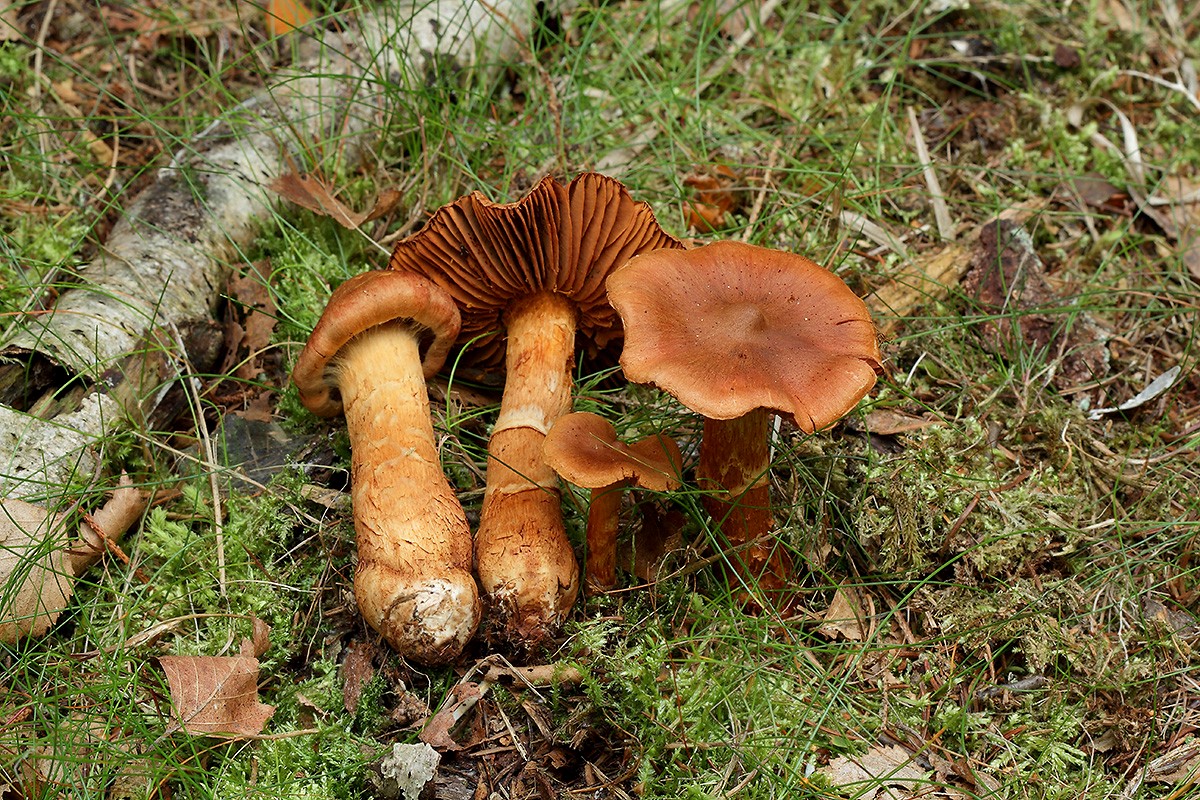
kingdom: Fungi
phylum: Basidiomycota
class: Agaricomycetes
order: Agaricales
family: Cortinariaceae
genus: Cortinarius
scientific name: Cortinarius rubellus
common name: puklet gift-slørhat
